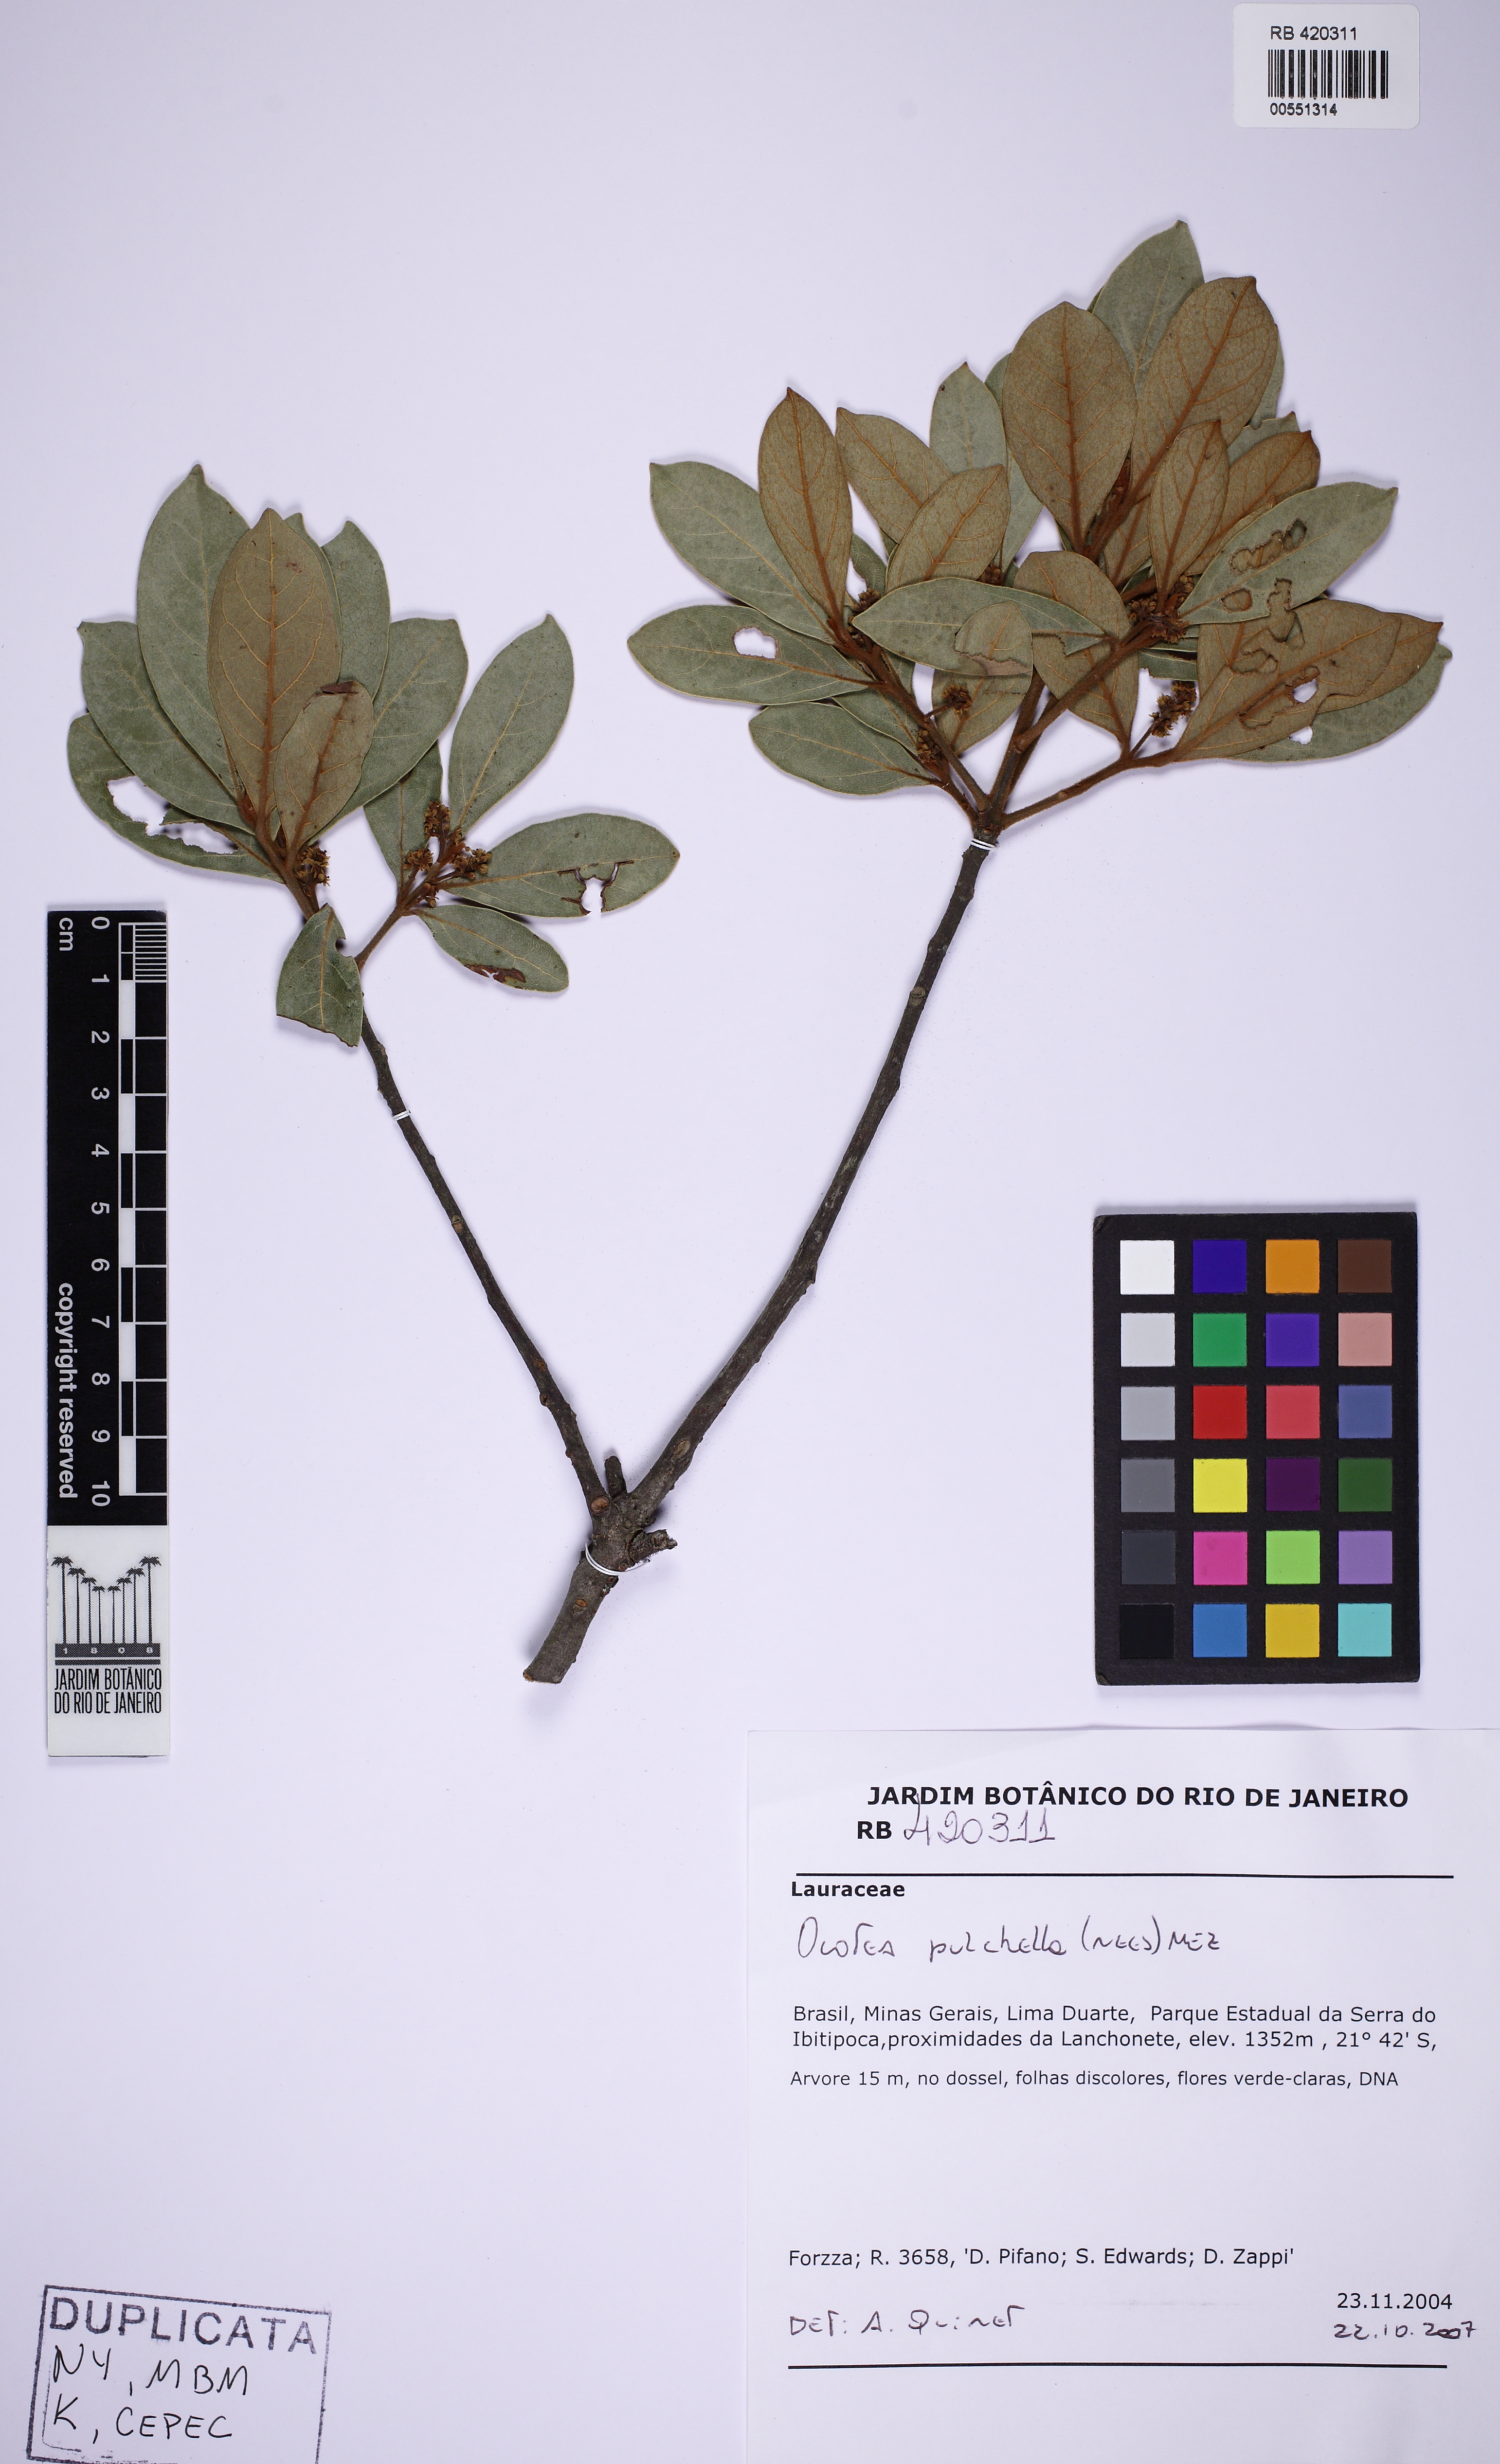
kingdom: Plantae
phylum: Tracheophyta
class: Magnoliopsida
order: Laurales
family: Lauraceae
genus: Mespilodaphne
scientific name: Mespilodaphne pulchella
